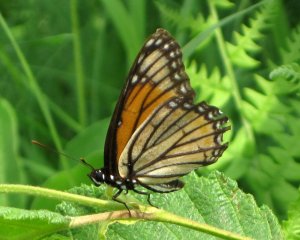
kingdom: Animalia
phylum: Arthropoda
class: Insecta
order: Lepidoptera
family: Nymphalidae
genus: Limenitis
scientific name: Limenitis archippus
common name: Viceroy
